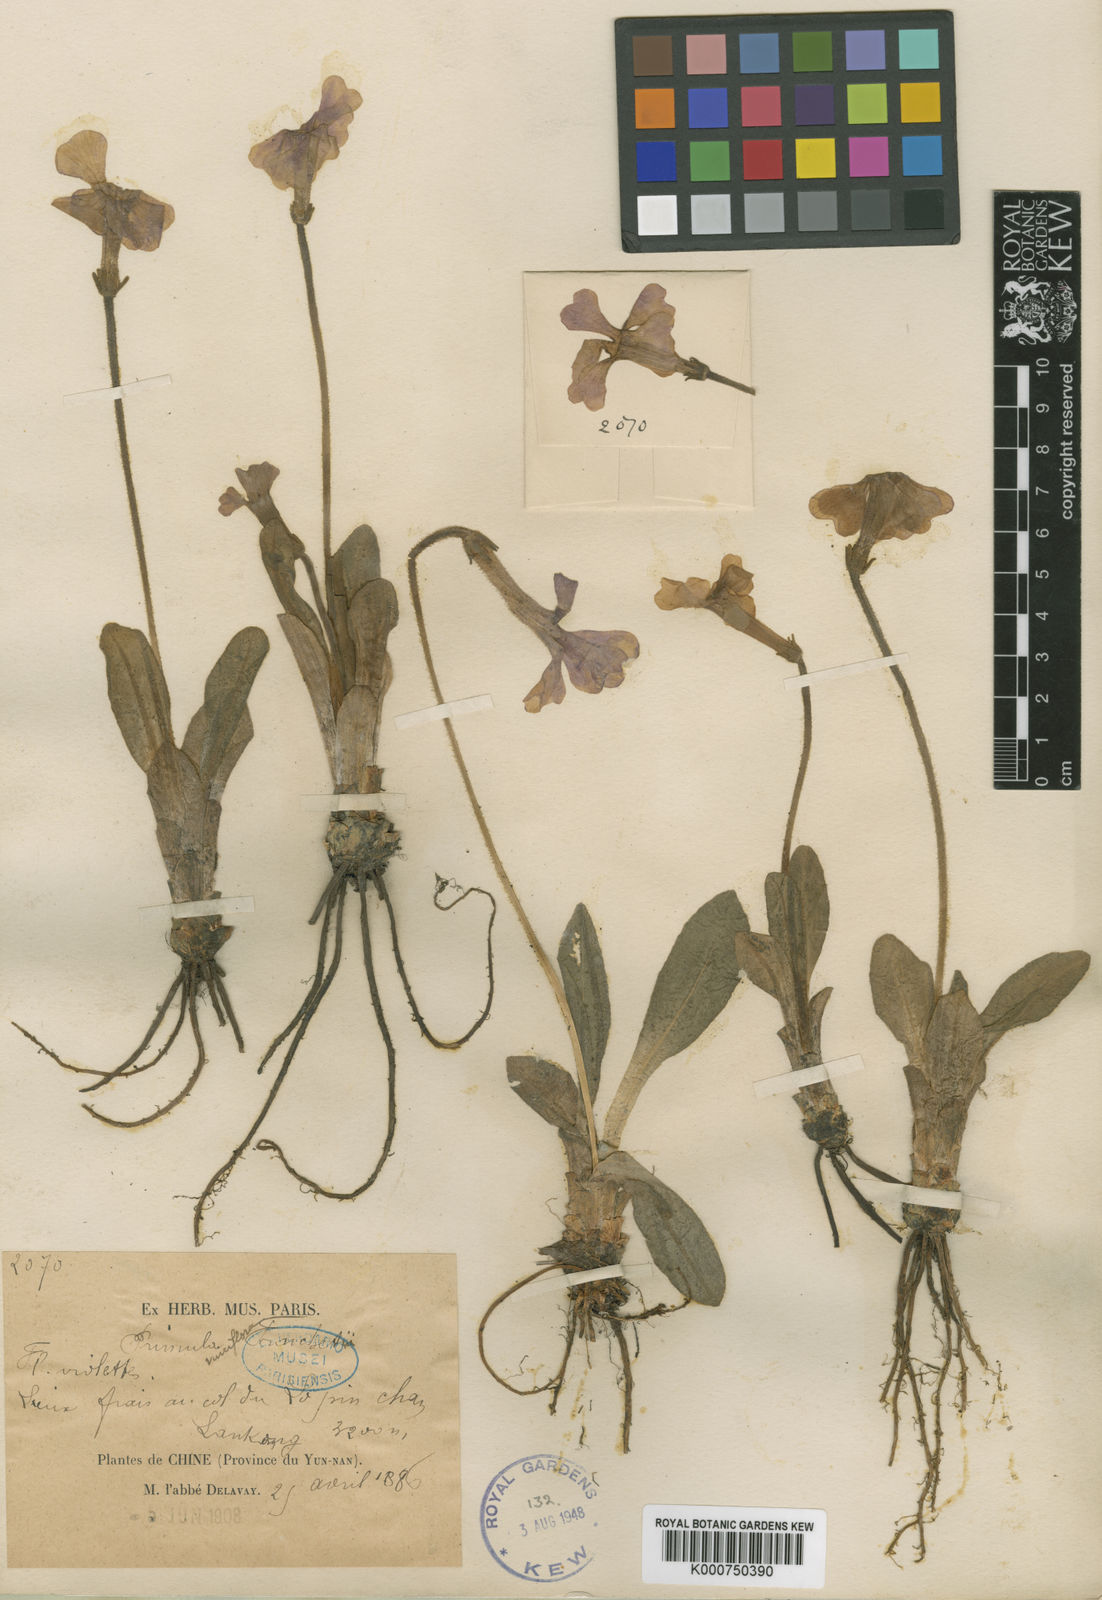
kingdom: Plantae
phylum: Tracheophyta
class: Magnoliopsida
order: Ericales
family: Primulaceae
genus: Omphalogramma
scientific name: Omphalogramma vinciflorum
